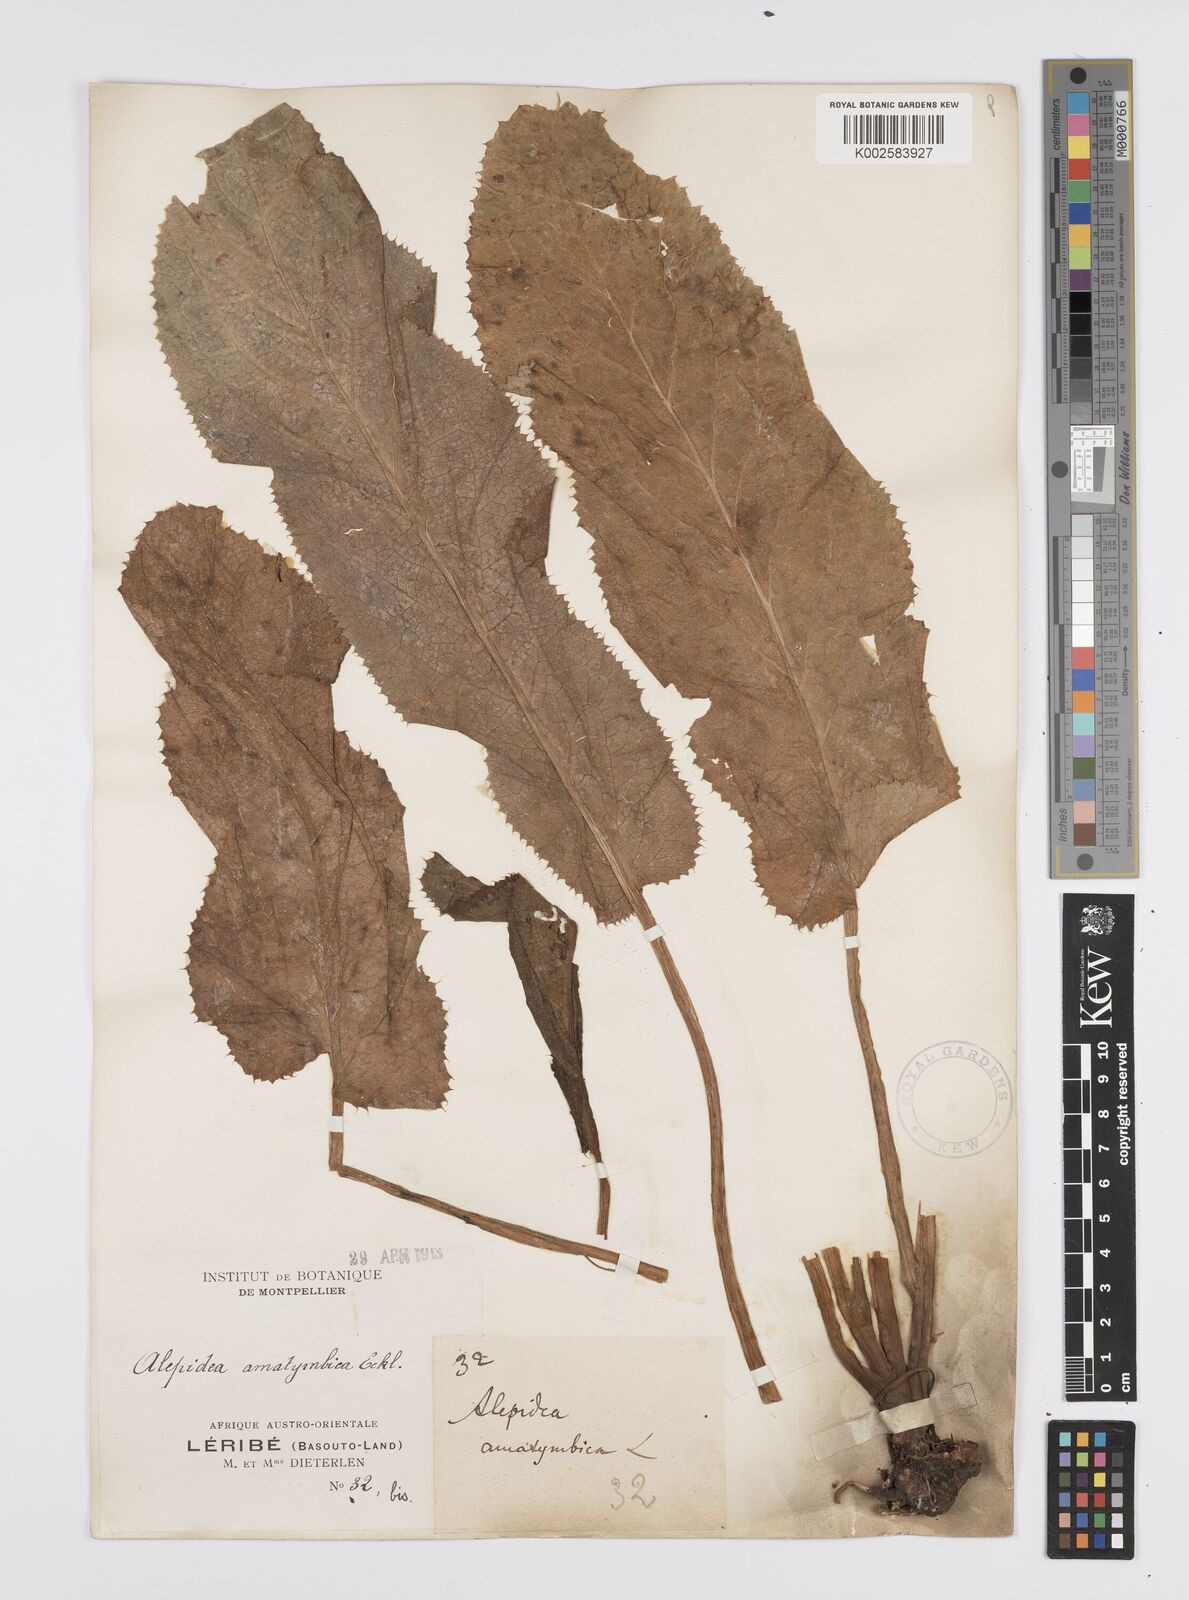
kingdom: Plantae
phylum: Tracheophyta
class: Magnoliopsida
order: Apiales
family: Apiaceae
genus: Alepidea
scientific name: Alepidea amatymbica
